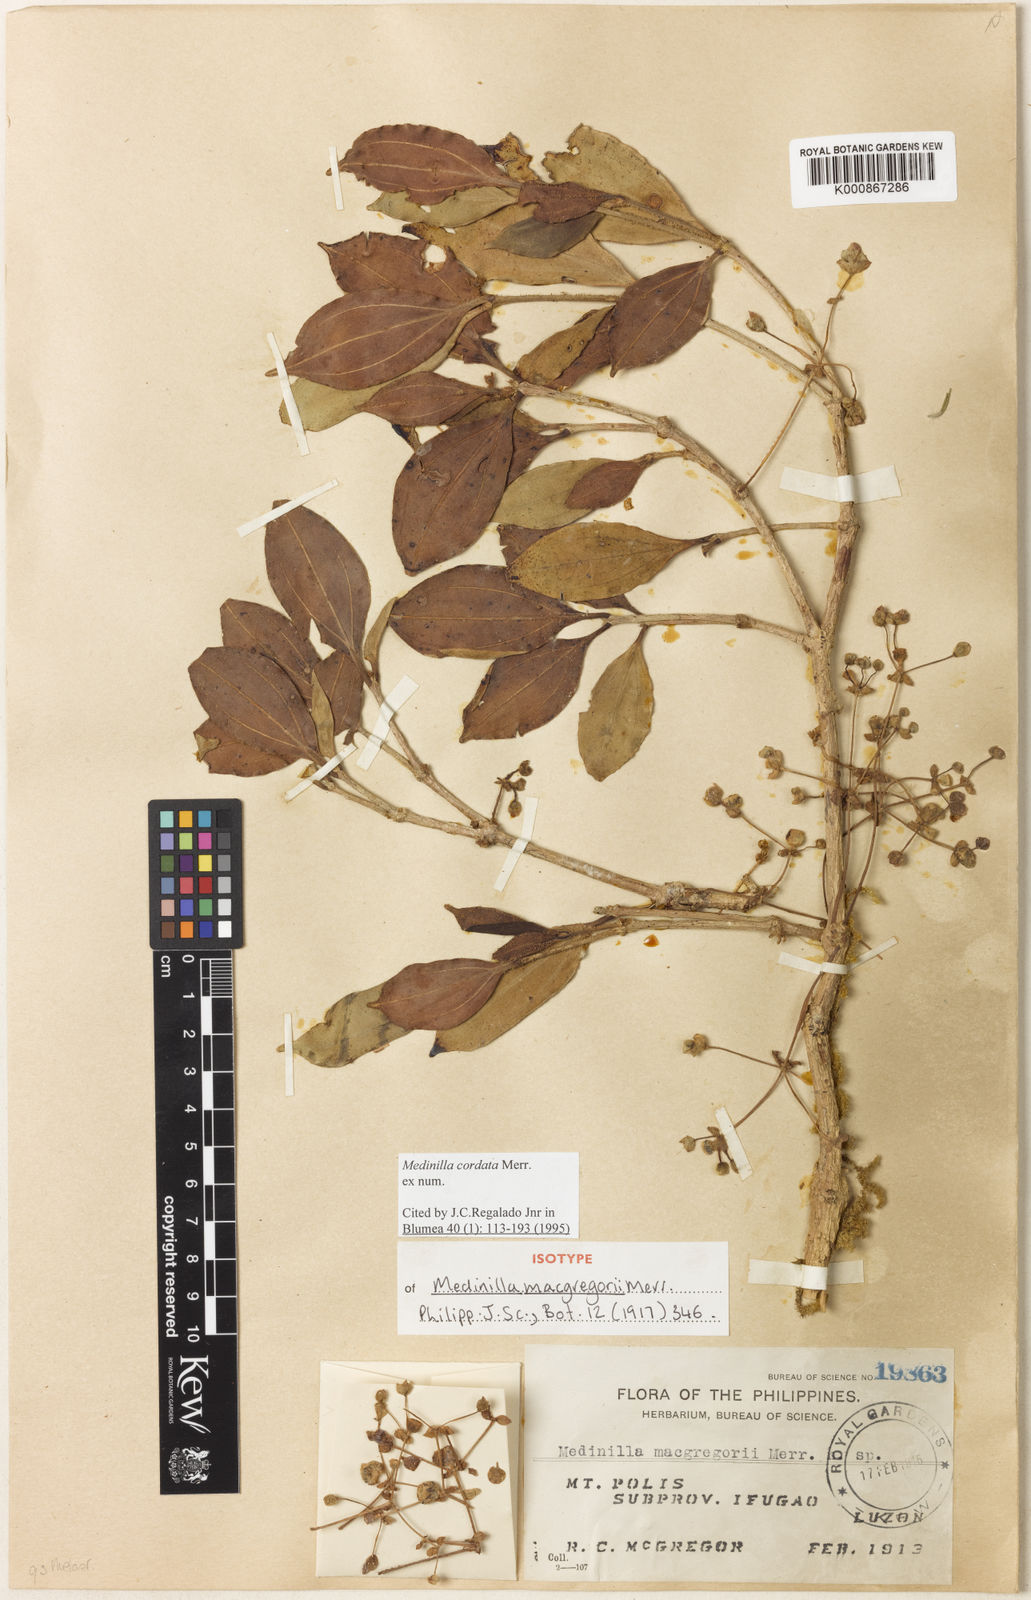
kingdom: Plantae
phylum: Tracheophyta
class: Magnoliopsida
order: Myrtales
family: Melastomataceae
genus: Medinilla
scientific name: Medinilla cordata
